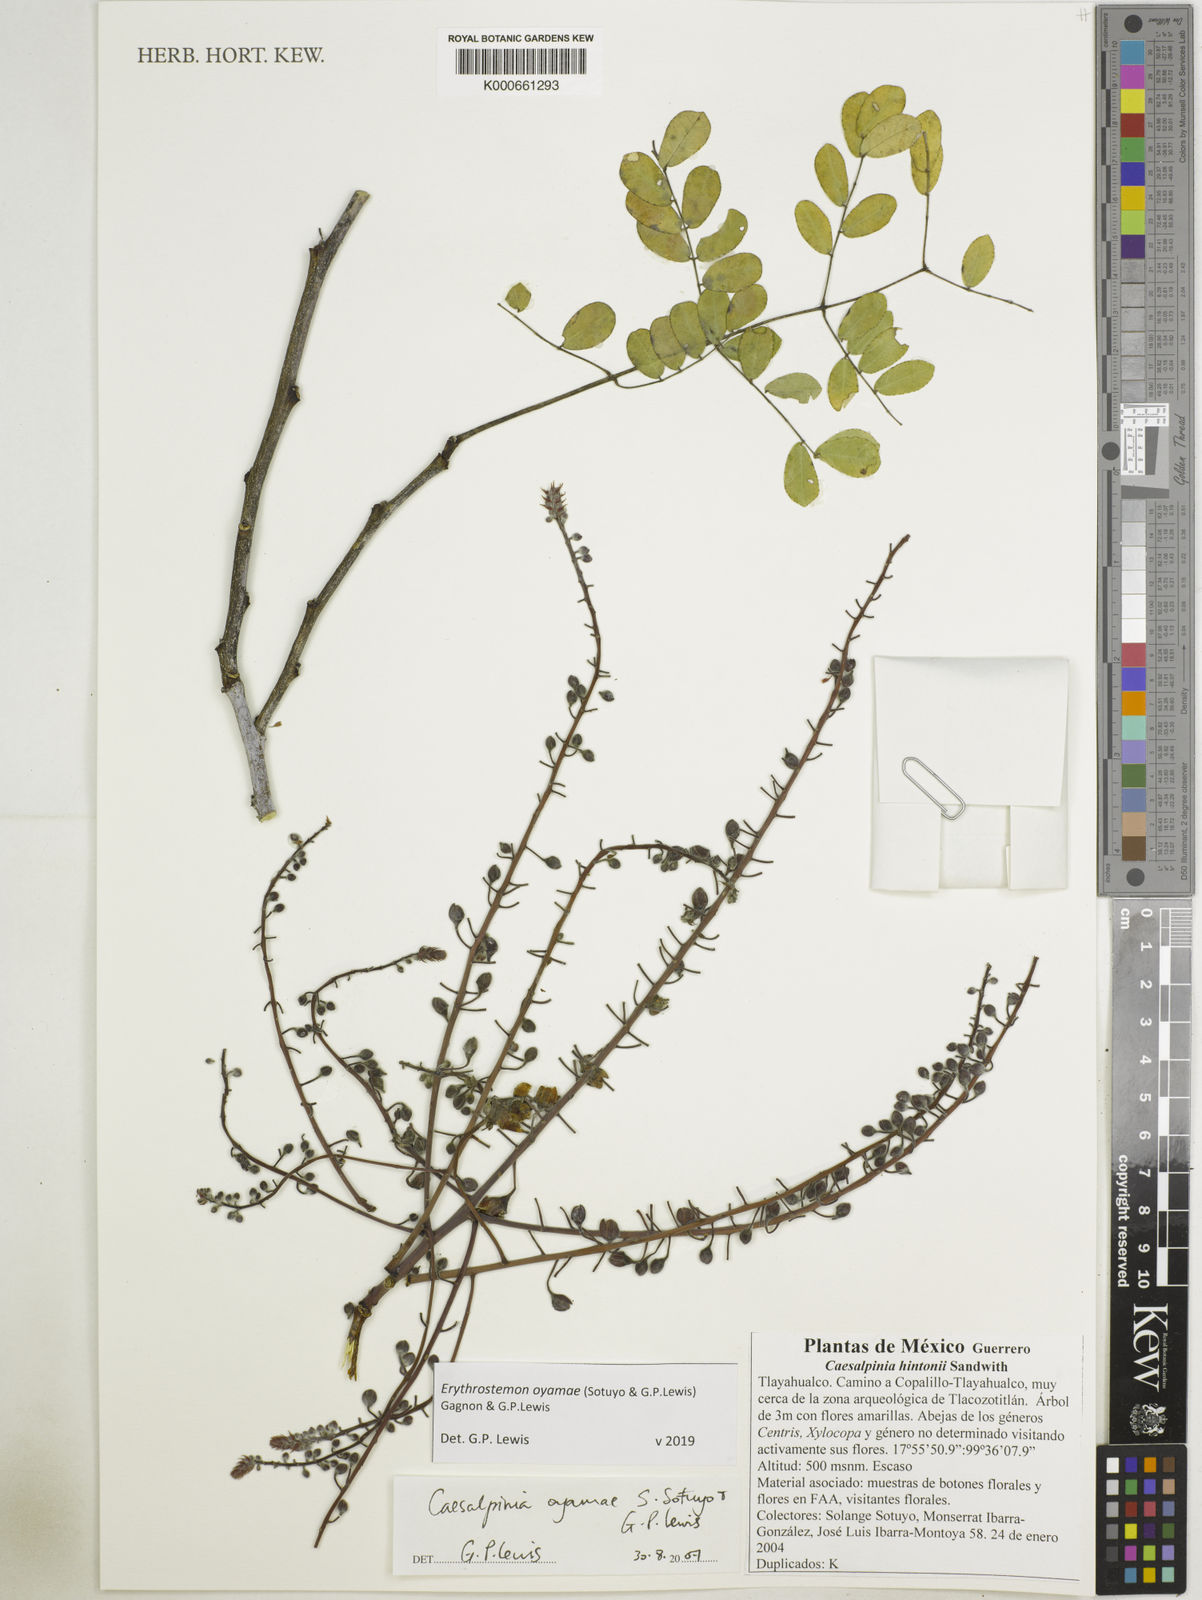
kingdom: Plantae
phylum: Tracheophyta
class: Magnoliopsida
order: Fabales
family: Fabaceae
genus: Erythrostemon
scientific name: Erythrostemon oyamae
